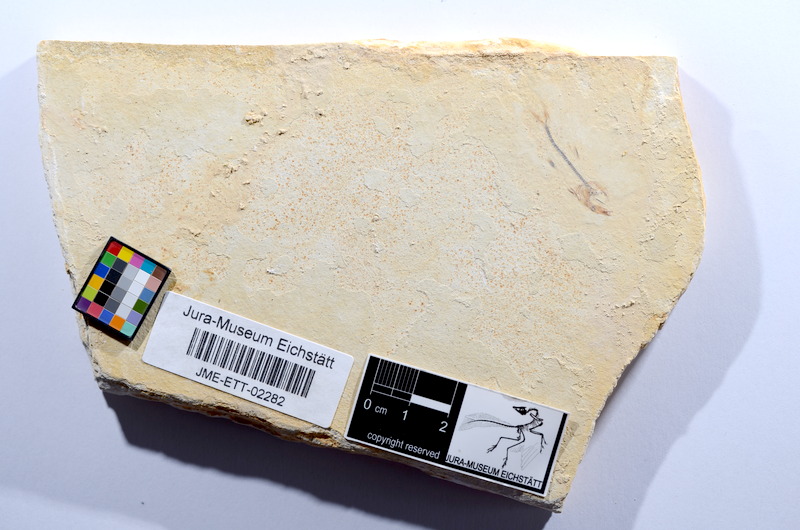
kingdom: Animalia
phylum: Chordata
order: Salmoniformes
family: Orthogonikleithridae
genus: Orthogonikleithrus
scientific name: Orthogonikleithrus hoelli
